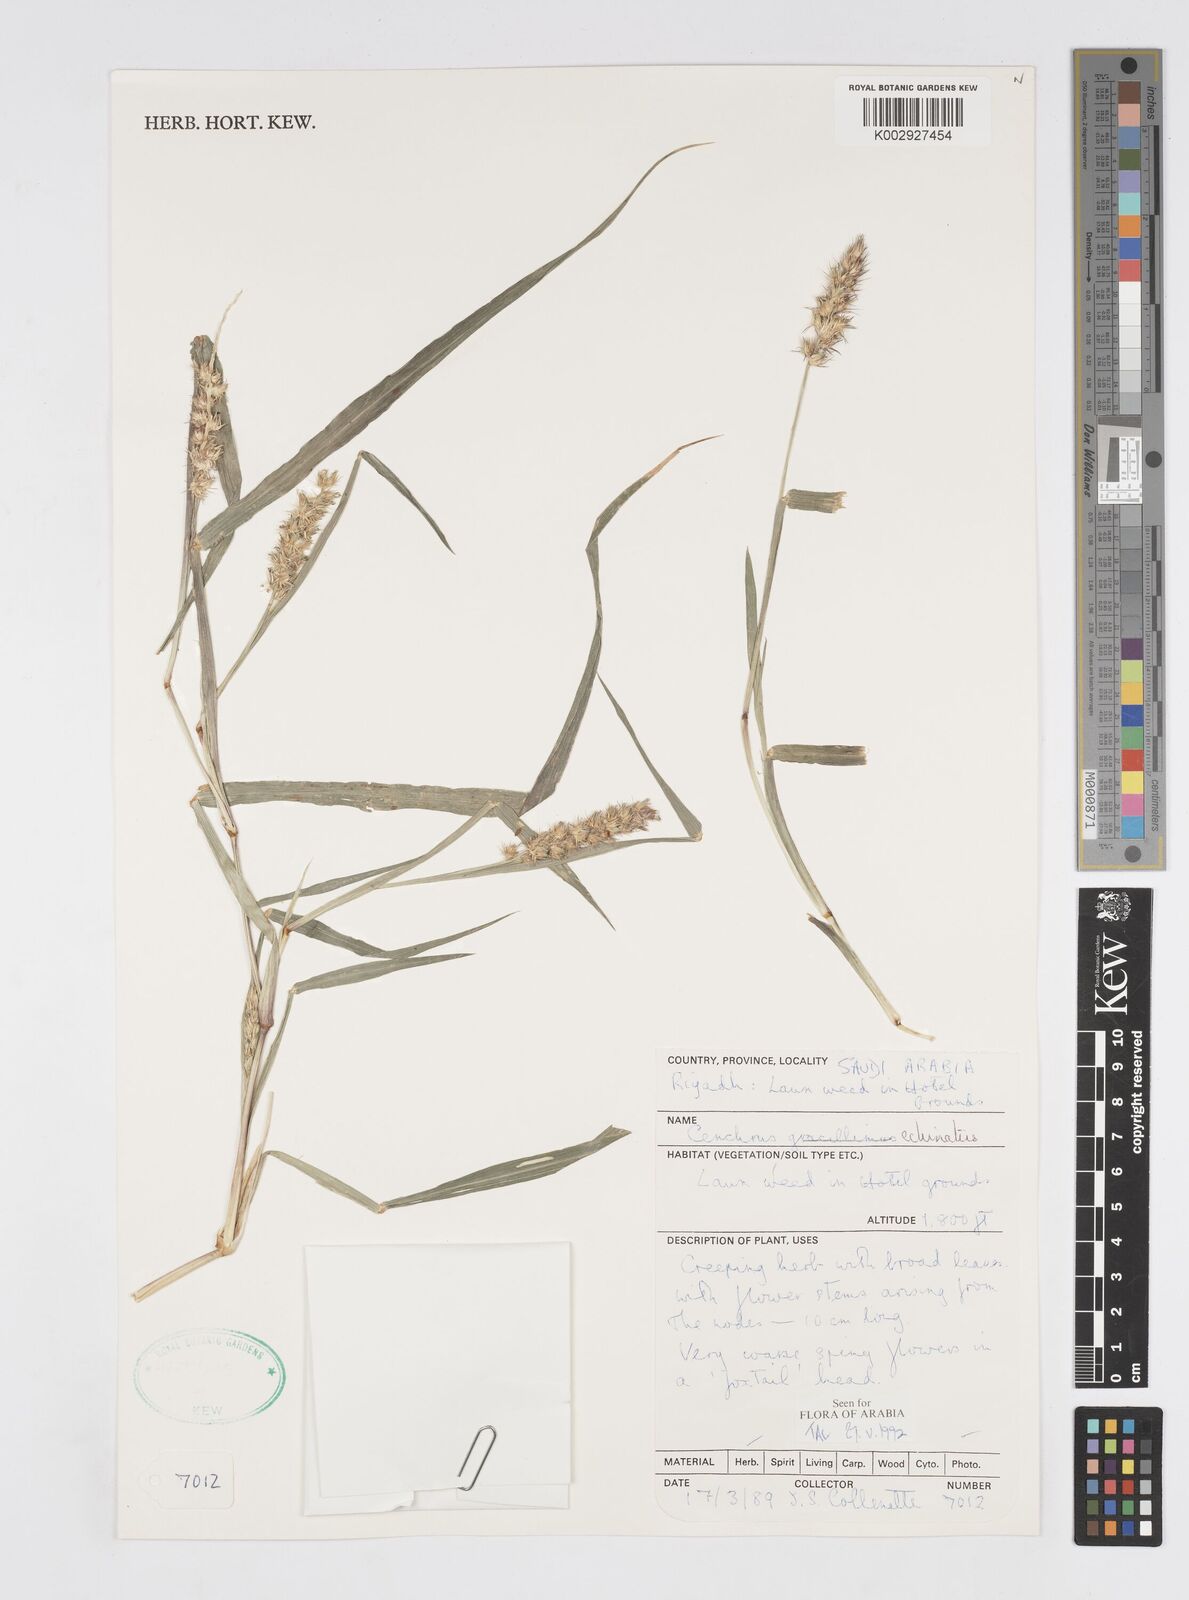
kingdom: Plantae
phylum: Tracheophyta
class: Liliopsida
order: Poales
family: Poaceae
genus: Cenchrus
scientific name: Cenchrus echinatus
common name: Southern sandbur
